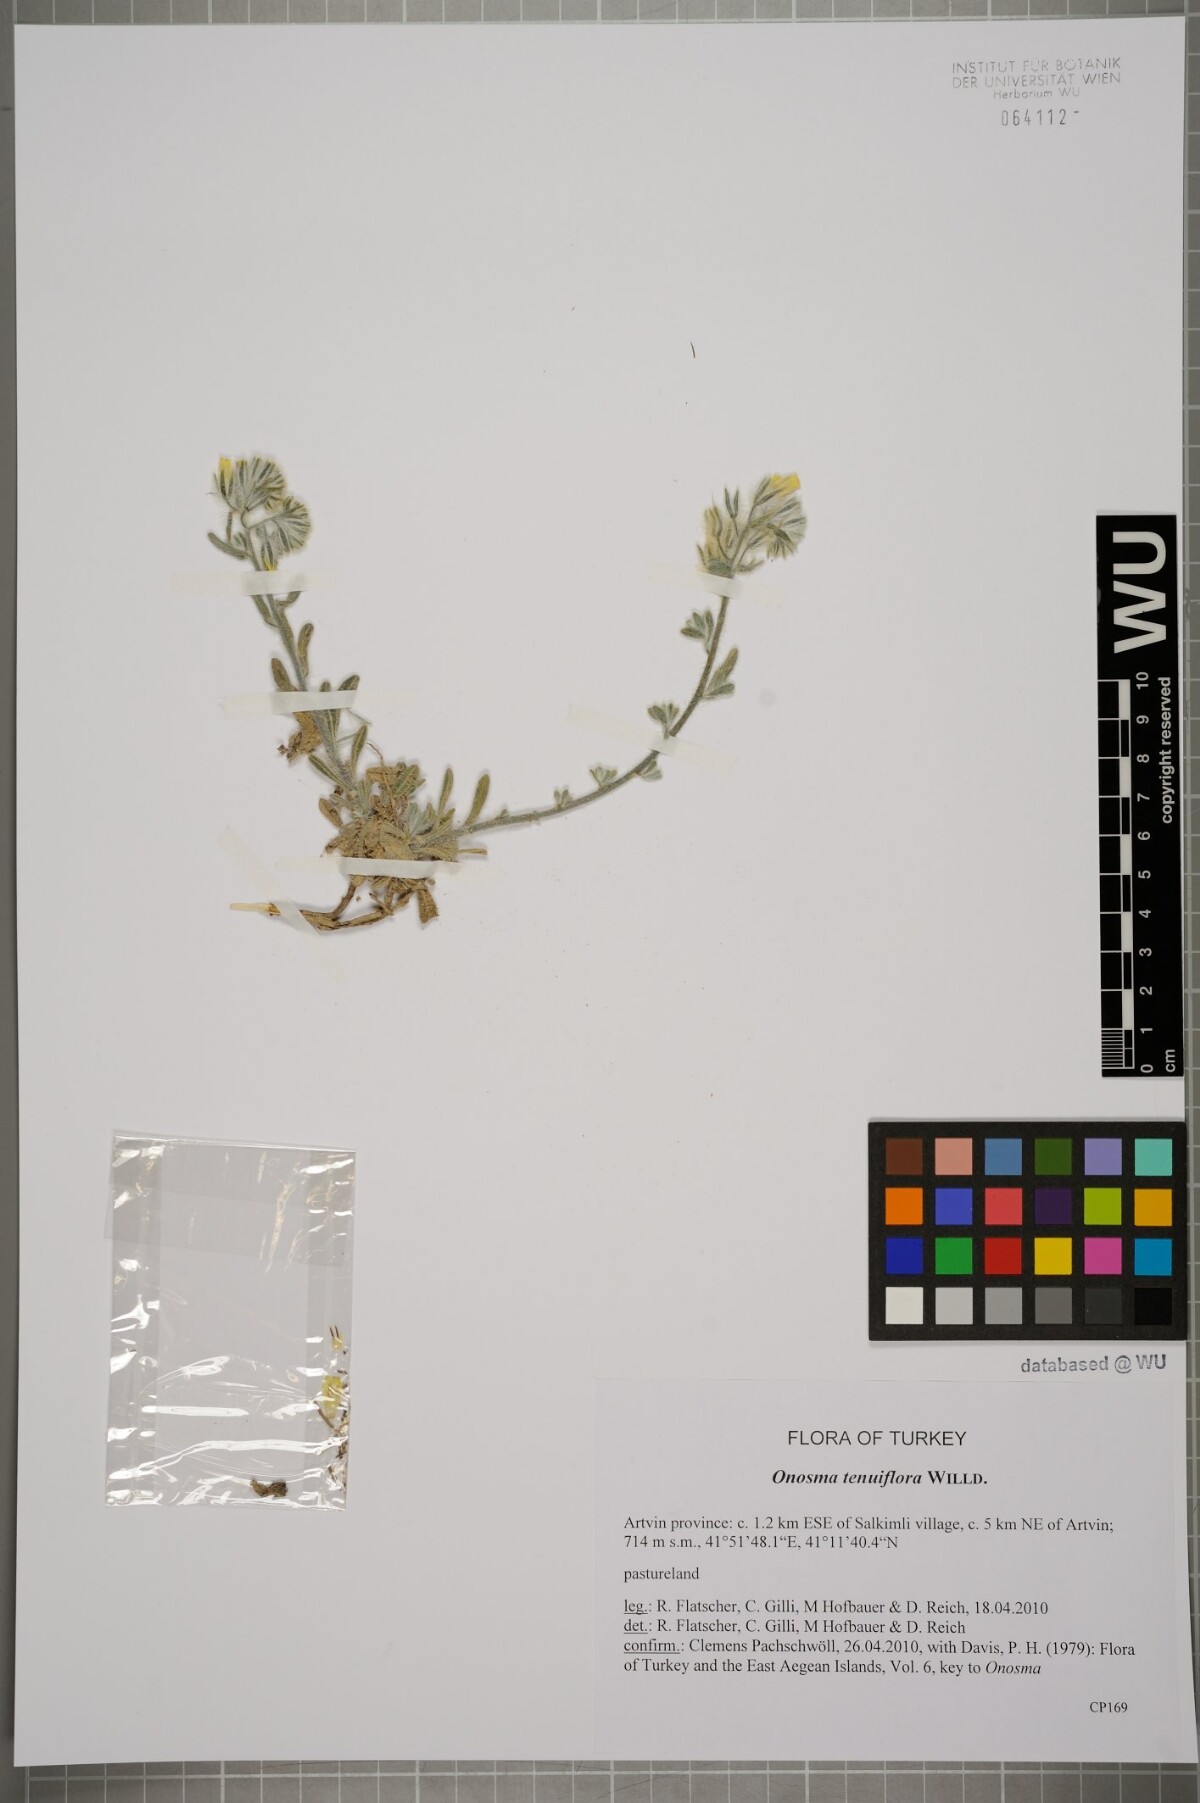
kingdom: Plantae
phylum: Tracheophyta
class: Magnoliopsida
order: Boraginales
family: Boraginaceae
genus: Onosma
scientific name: Onosma tenuiflora
